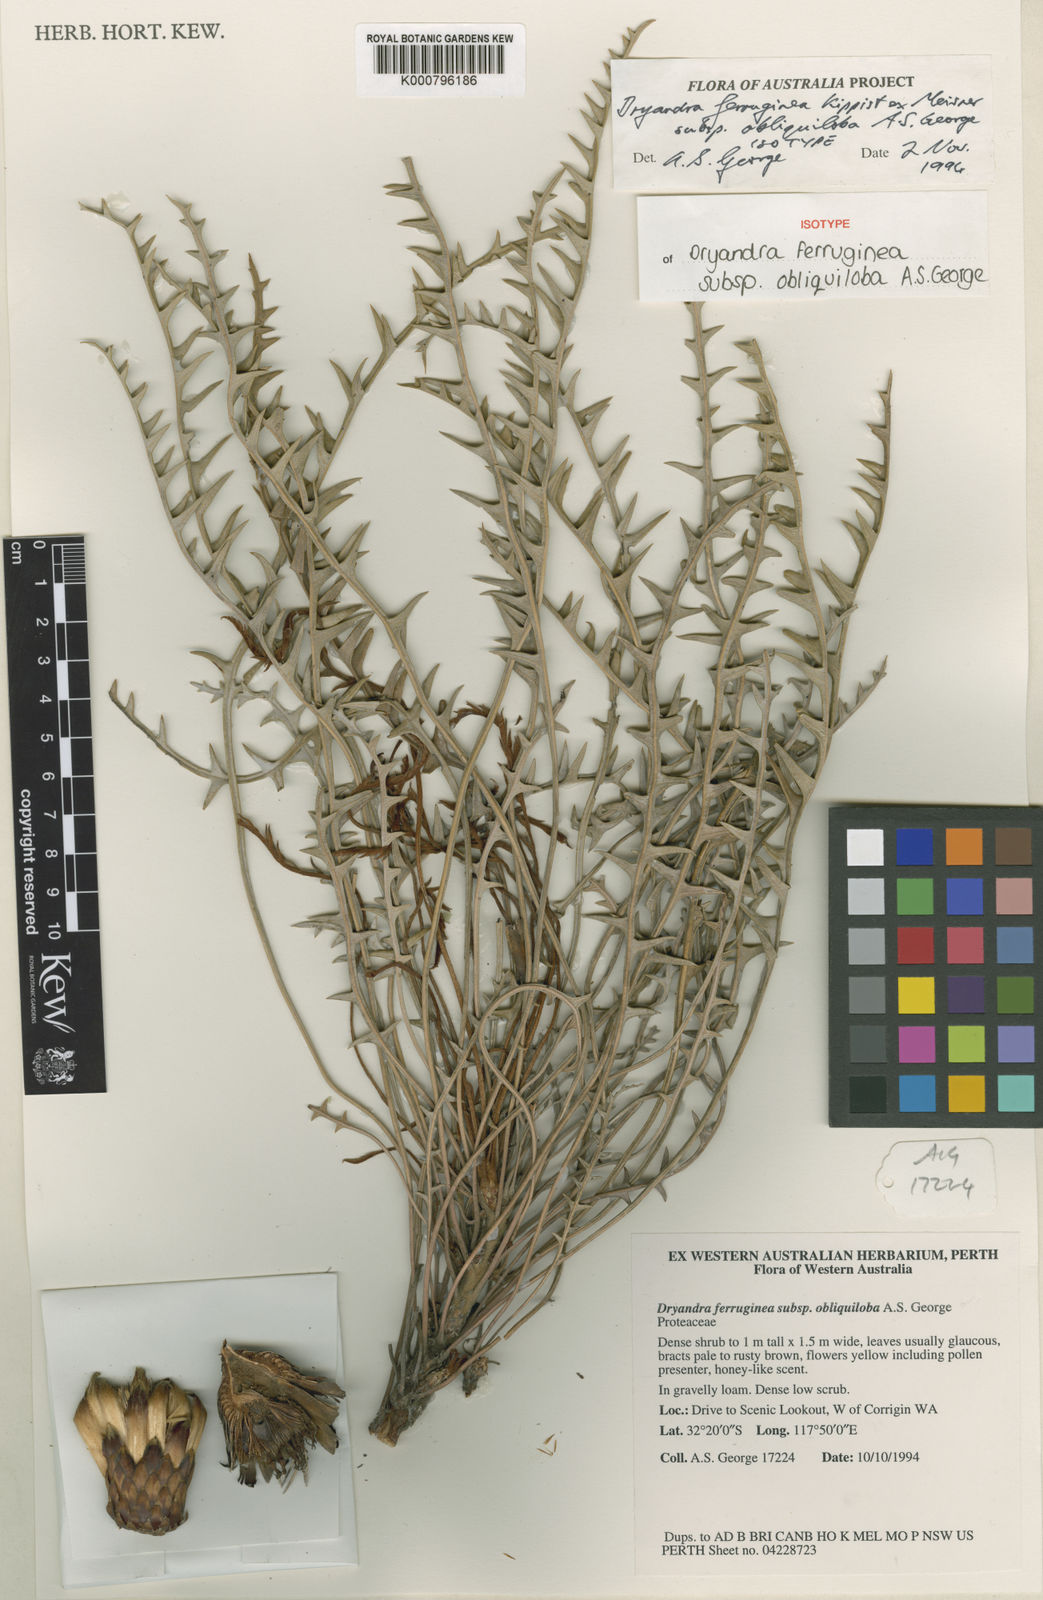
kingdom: Plantae
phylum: Tracheophyta
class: Magnoliopsida
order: Proteales
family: Proteaceae
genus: Banksia
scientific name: Banksia rufa
